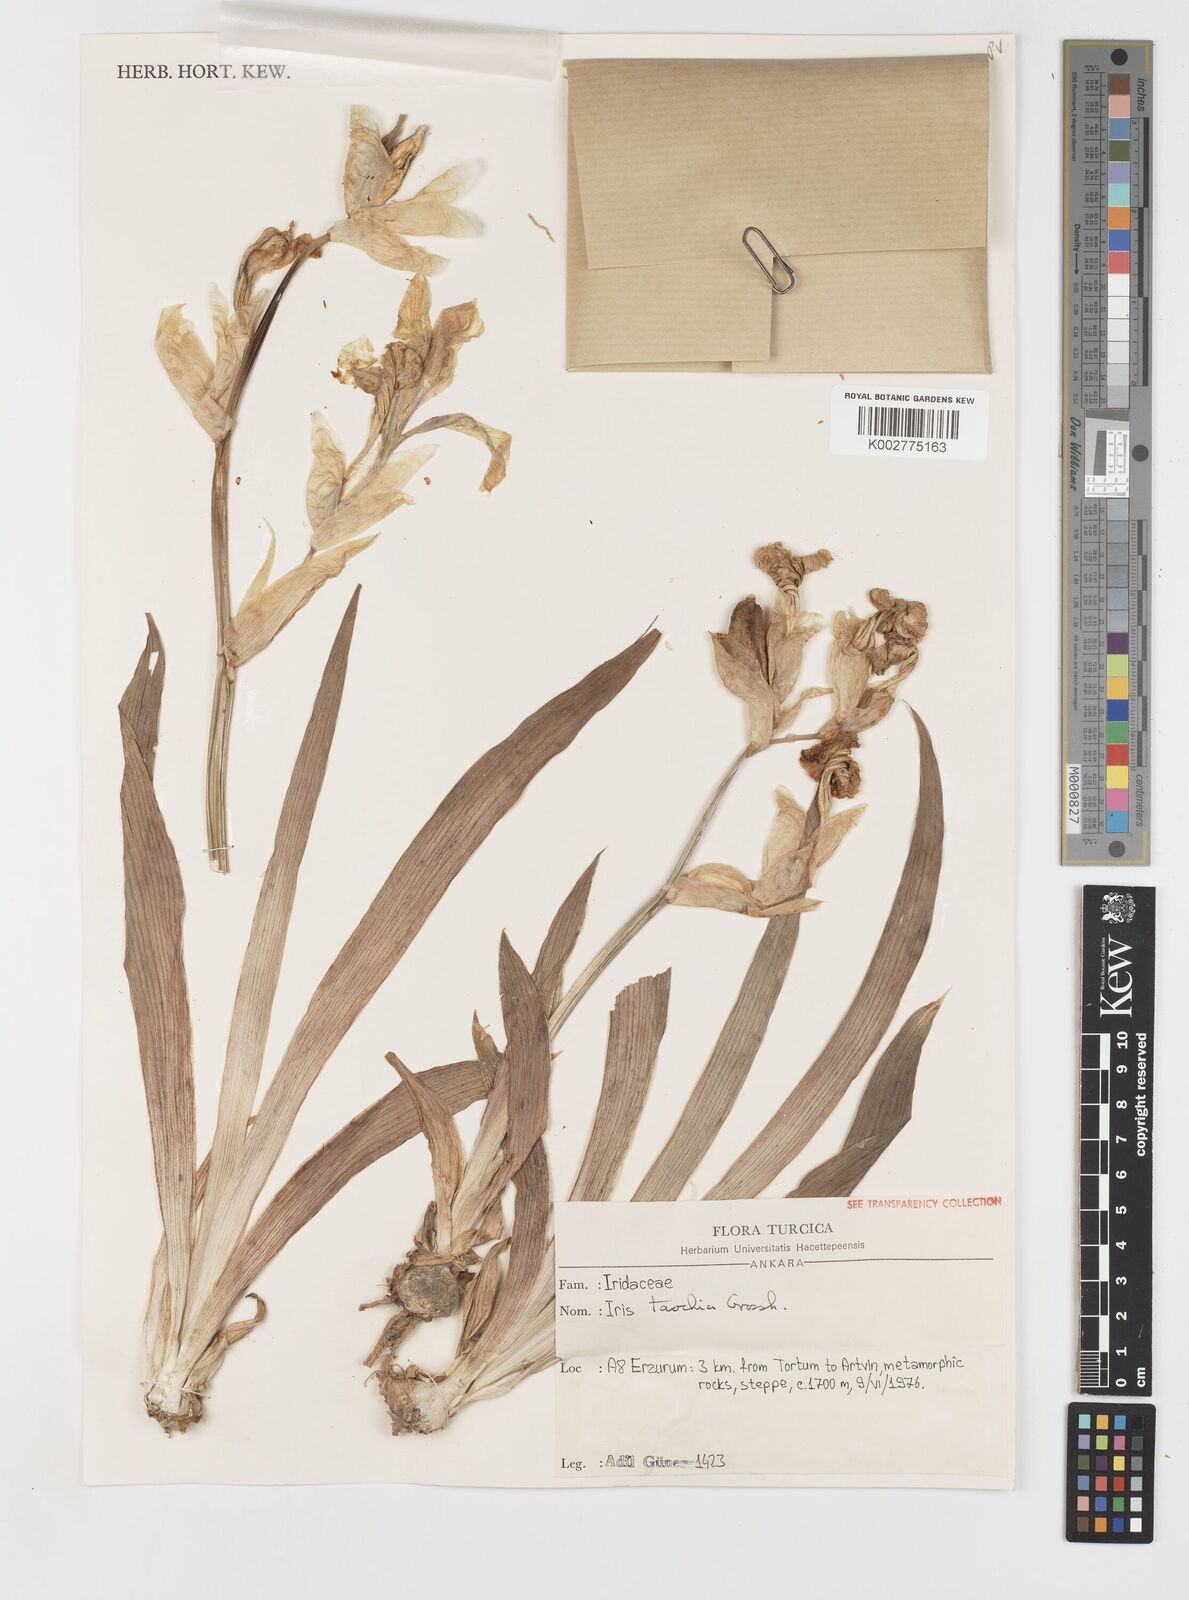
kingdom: Plantae
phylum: Tracheophyta
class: Liliopsida
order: Asparagales
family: Iridaceae
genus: Iris
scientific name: Iris taochia
